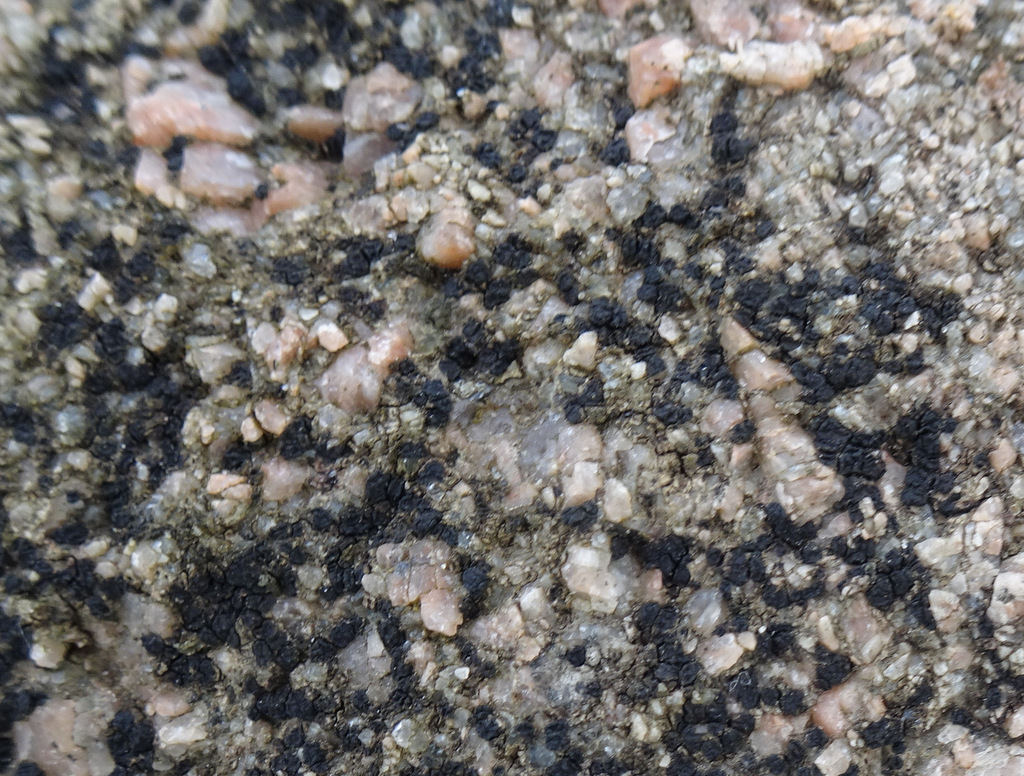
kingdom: Fungi
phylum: Ascomycota
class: Lecanoromycetes
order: Acarosporales
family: Acarosporaceae
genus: Acarospora
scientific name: Acarospora privigna
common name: sort foldekantlav
